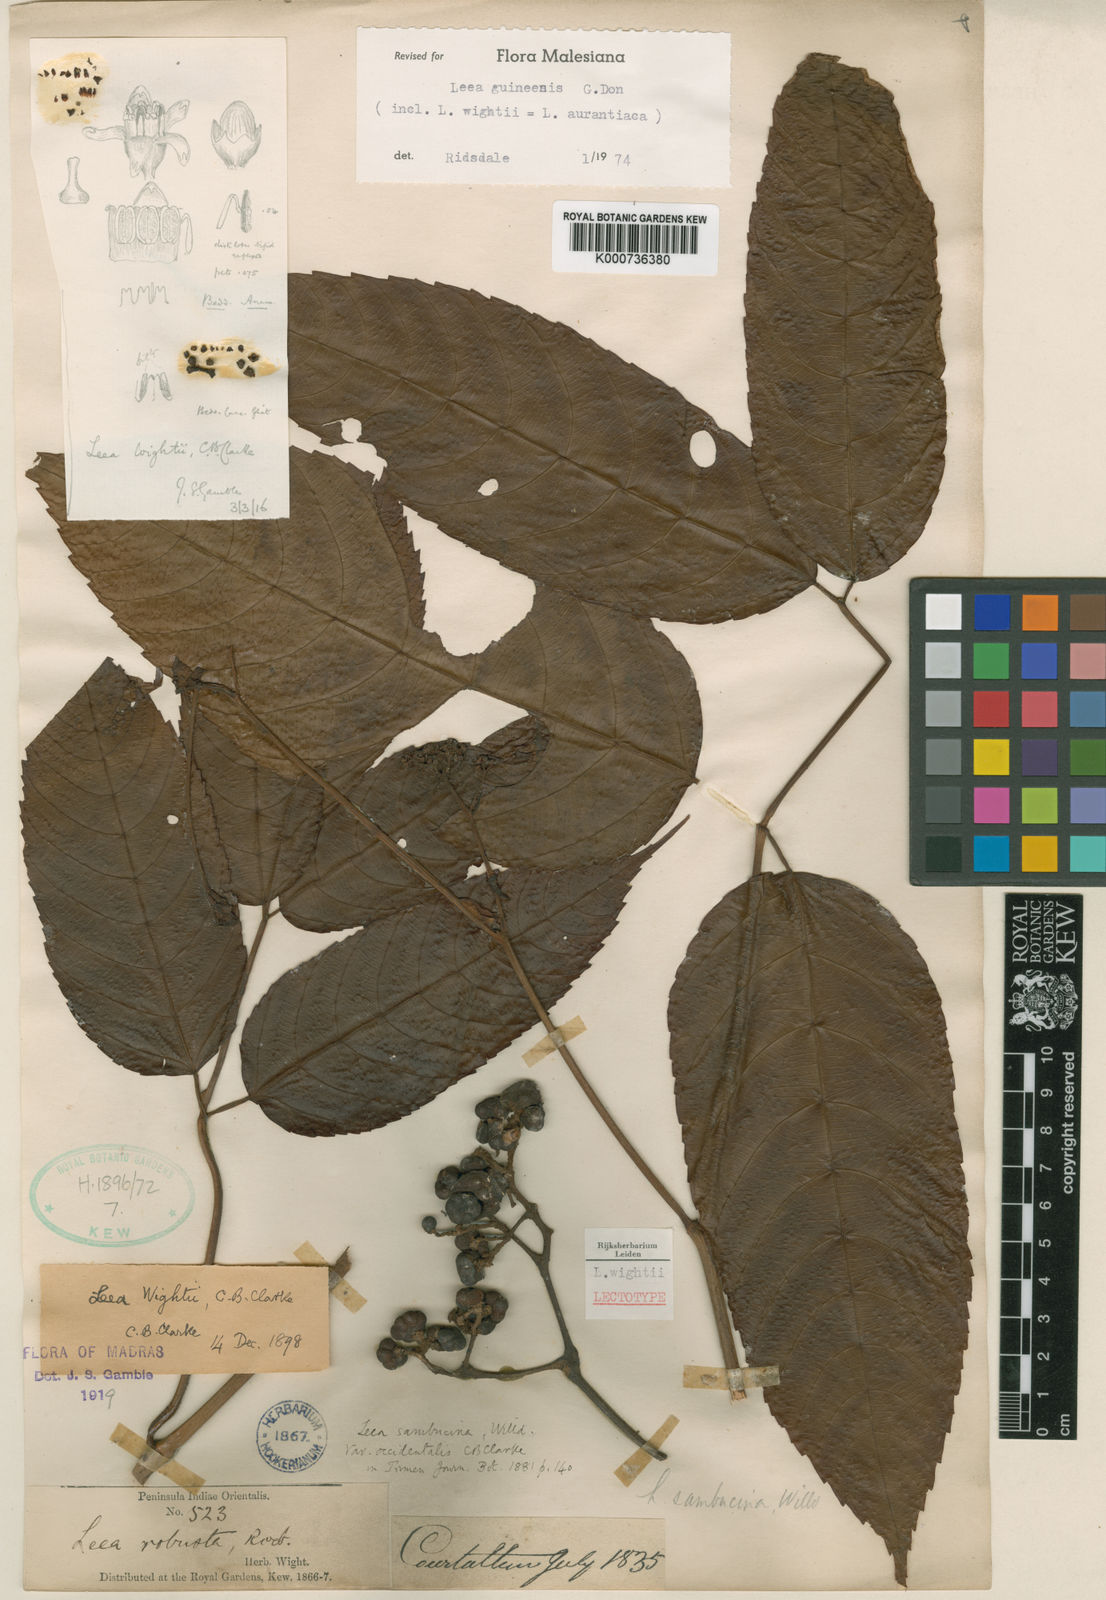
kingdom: Plantae
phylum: Tracheophyta
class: Magnoliopsida
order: Vitales
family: Vitaceae
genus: Leea
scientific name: Leea guineensis
